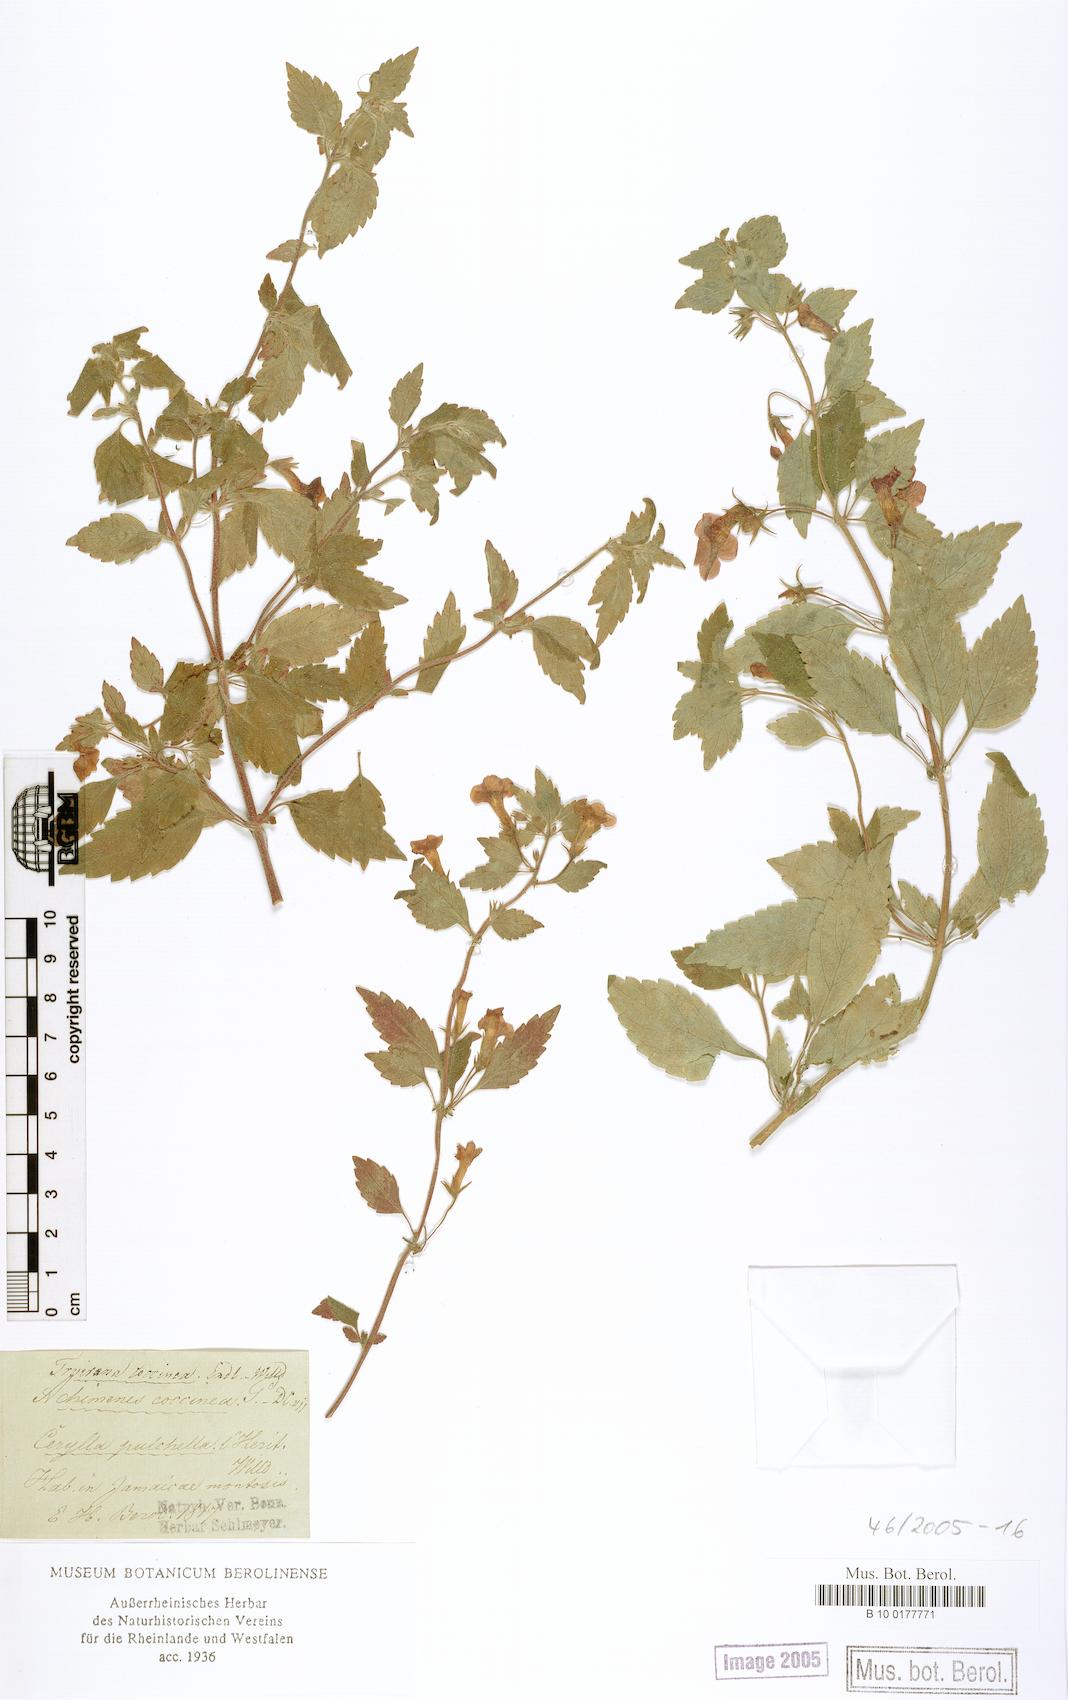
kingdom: Plantae
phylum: Tracheophyta
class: Magnoliopsida
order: Lamiales
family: Gesneriaceae
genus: Achimenes
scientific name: Achimenes erecta
